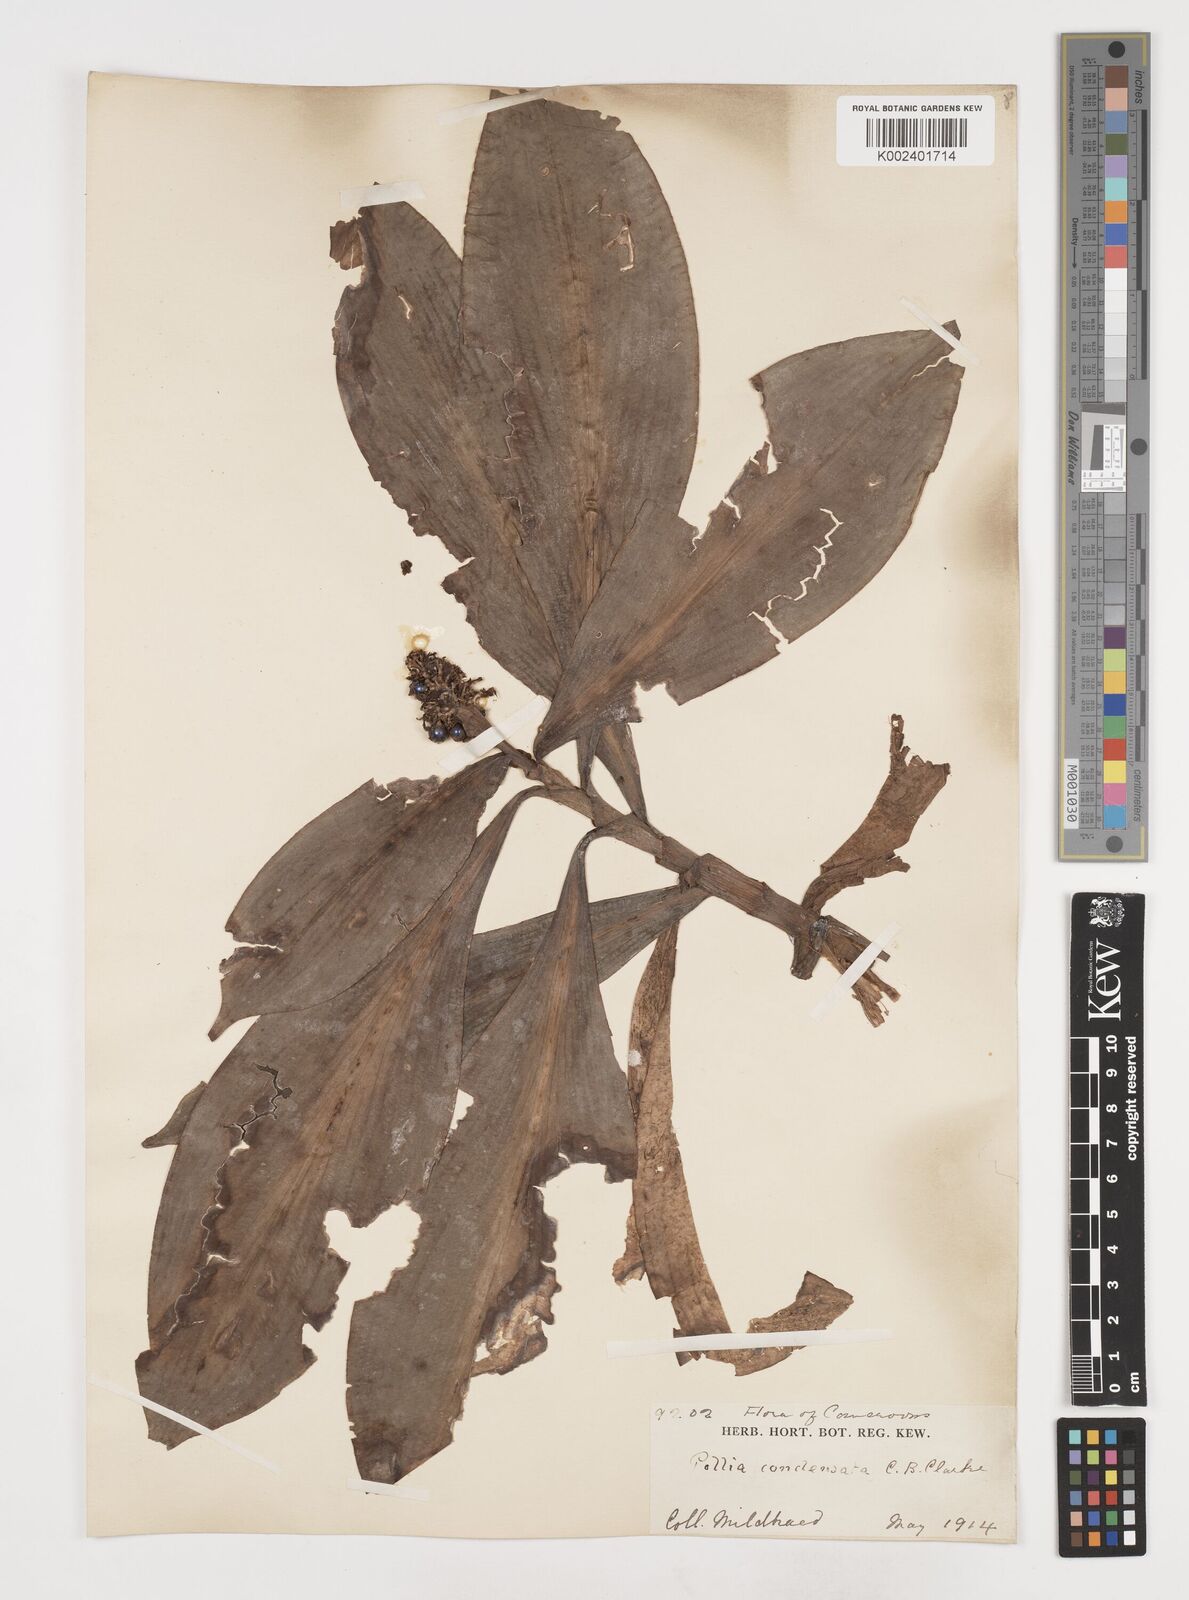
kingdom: Plantae
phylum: Tracheophyta
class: Liliopsida
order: Commelinales
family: Commelinaceae
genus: Pollia
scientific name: Pollia condensata
